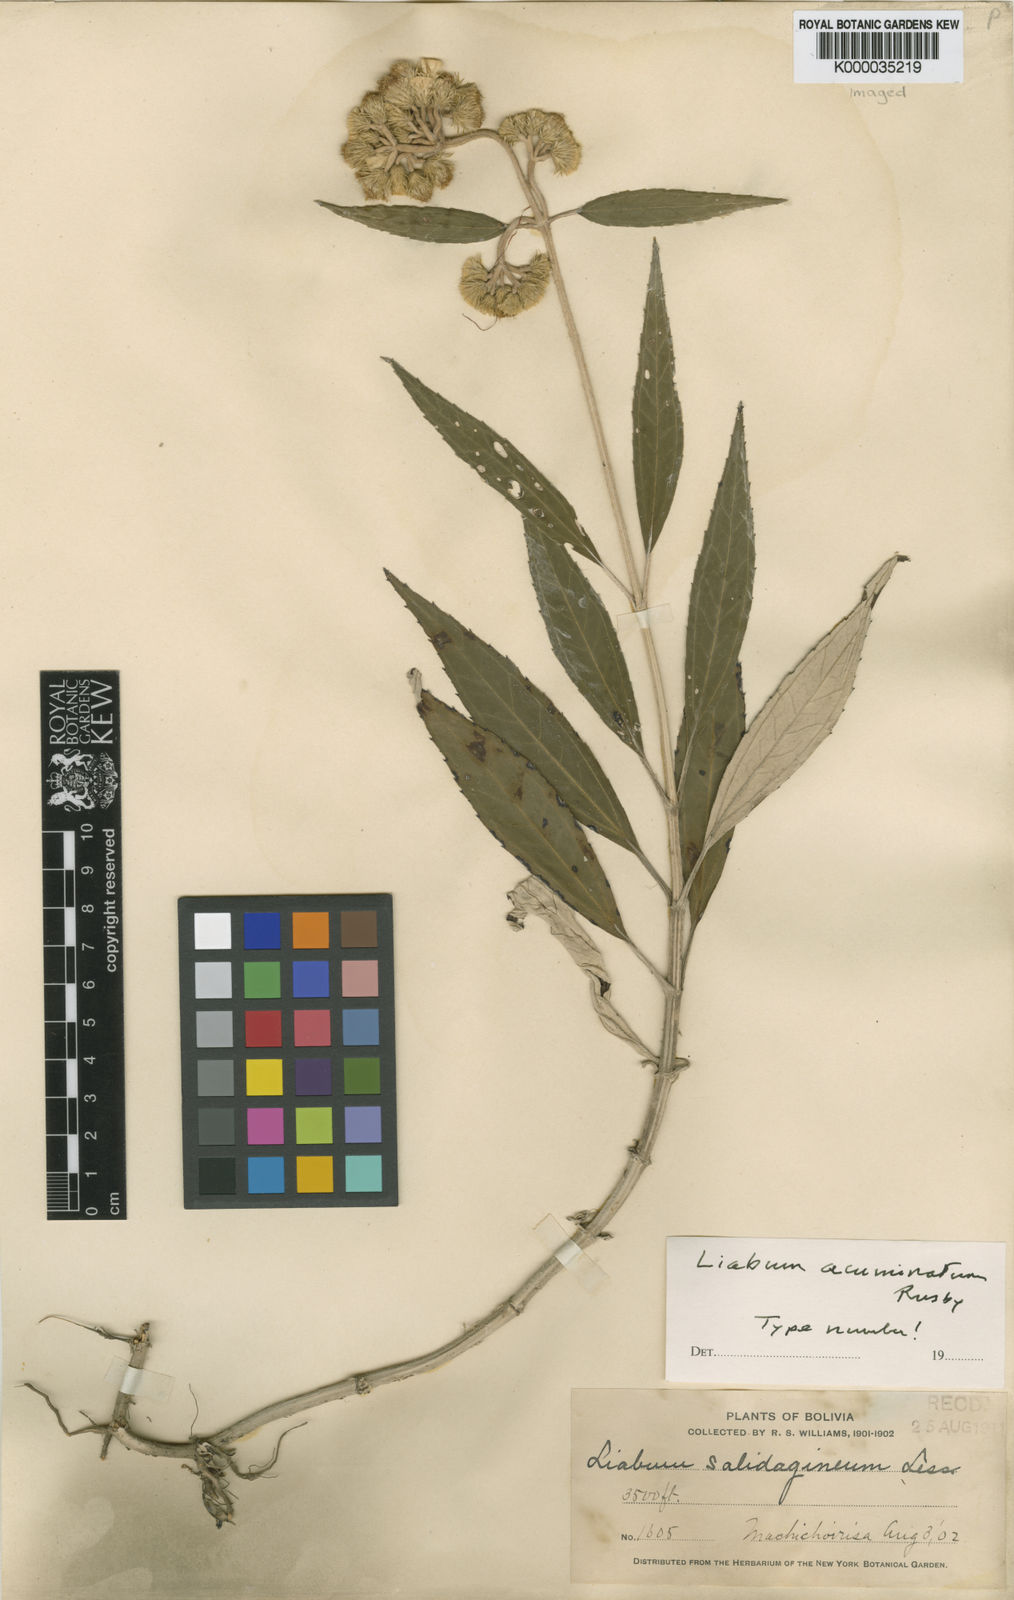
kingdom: Plantae
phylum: Tracheophyta
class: Magnoliopsida
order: Asterales
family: Asteraceae
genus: Liabum
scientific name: Liabum acuminatum
